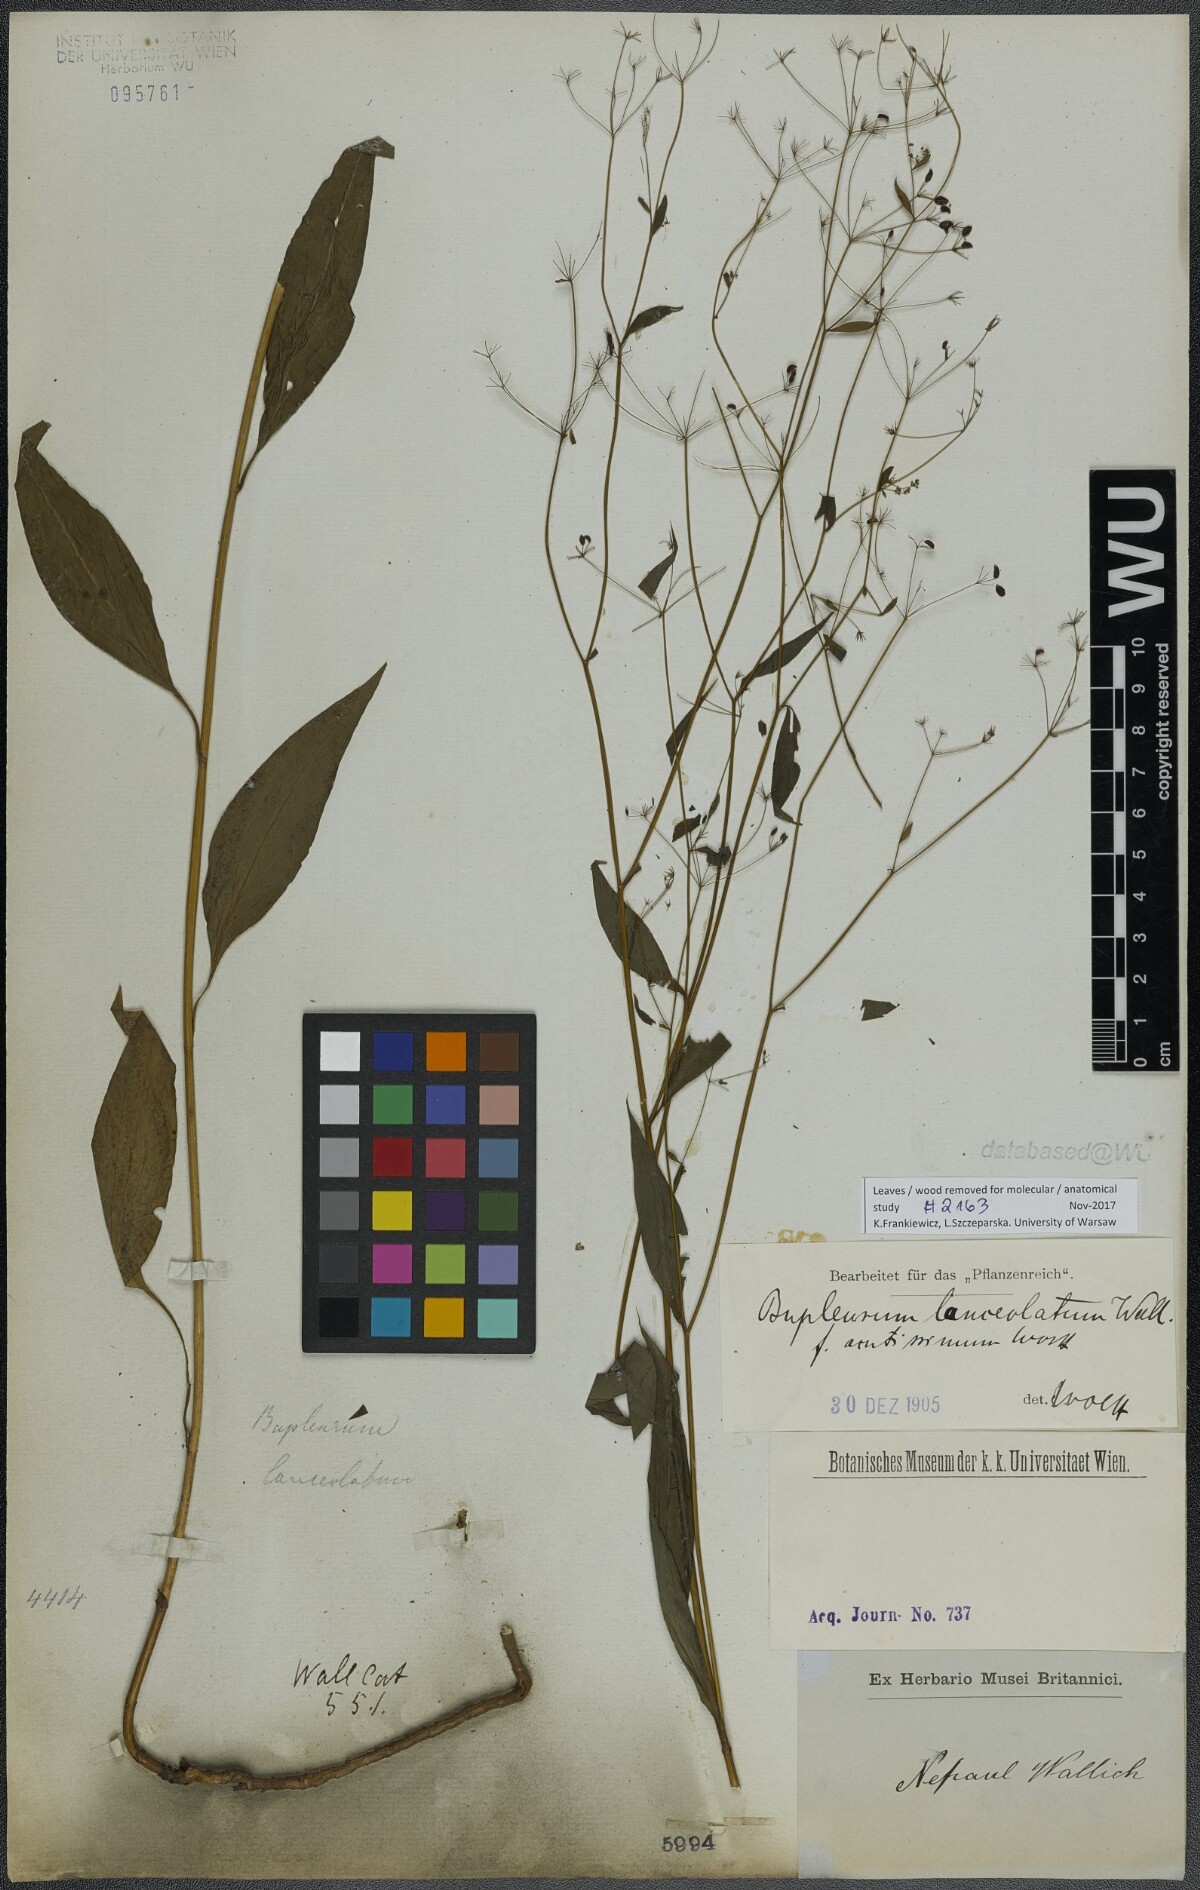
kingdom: Plantae
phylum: Tracheophyta
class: Magnoliopsida
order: Apiales
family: Apiaceae
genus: Bupleurum
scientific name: Bupleurum lanceolatum
